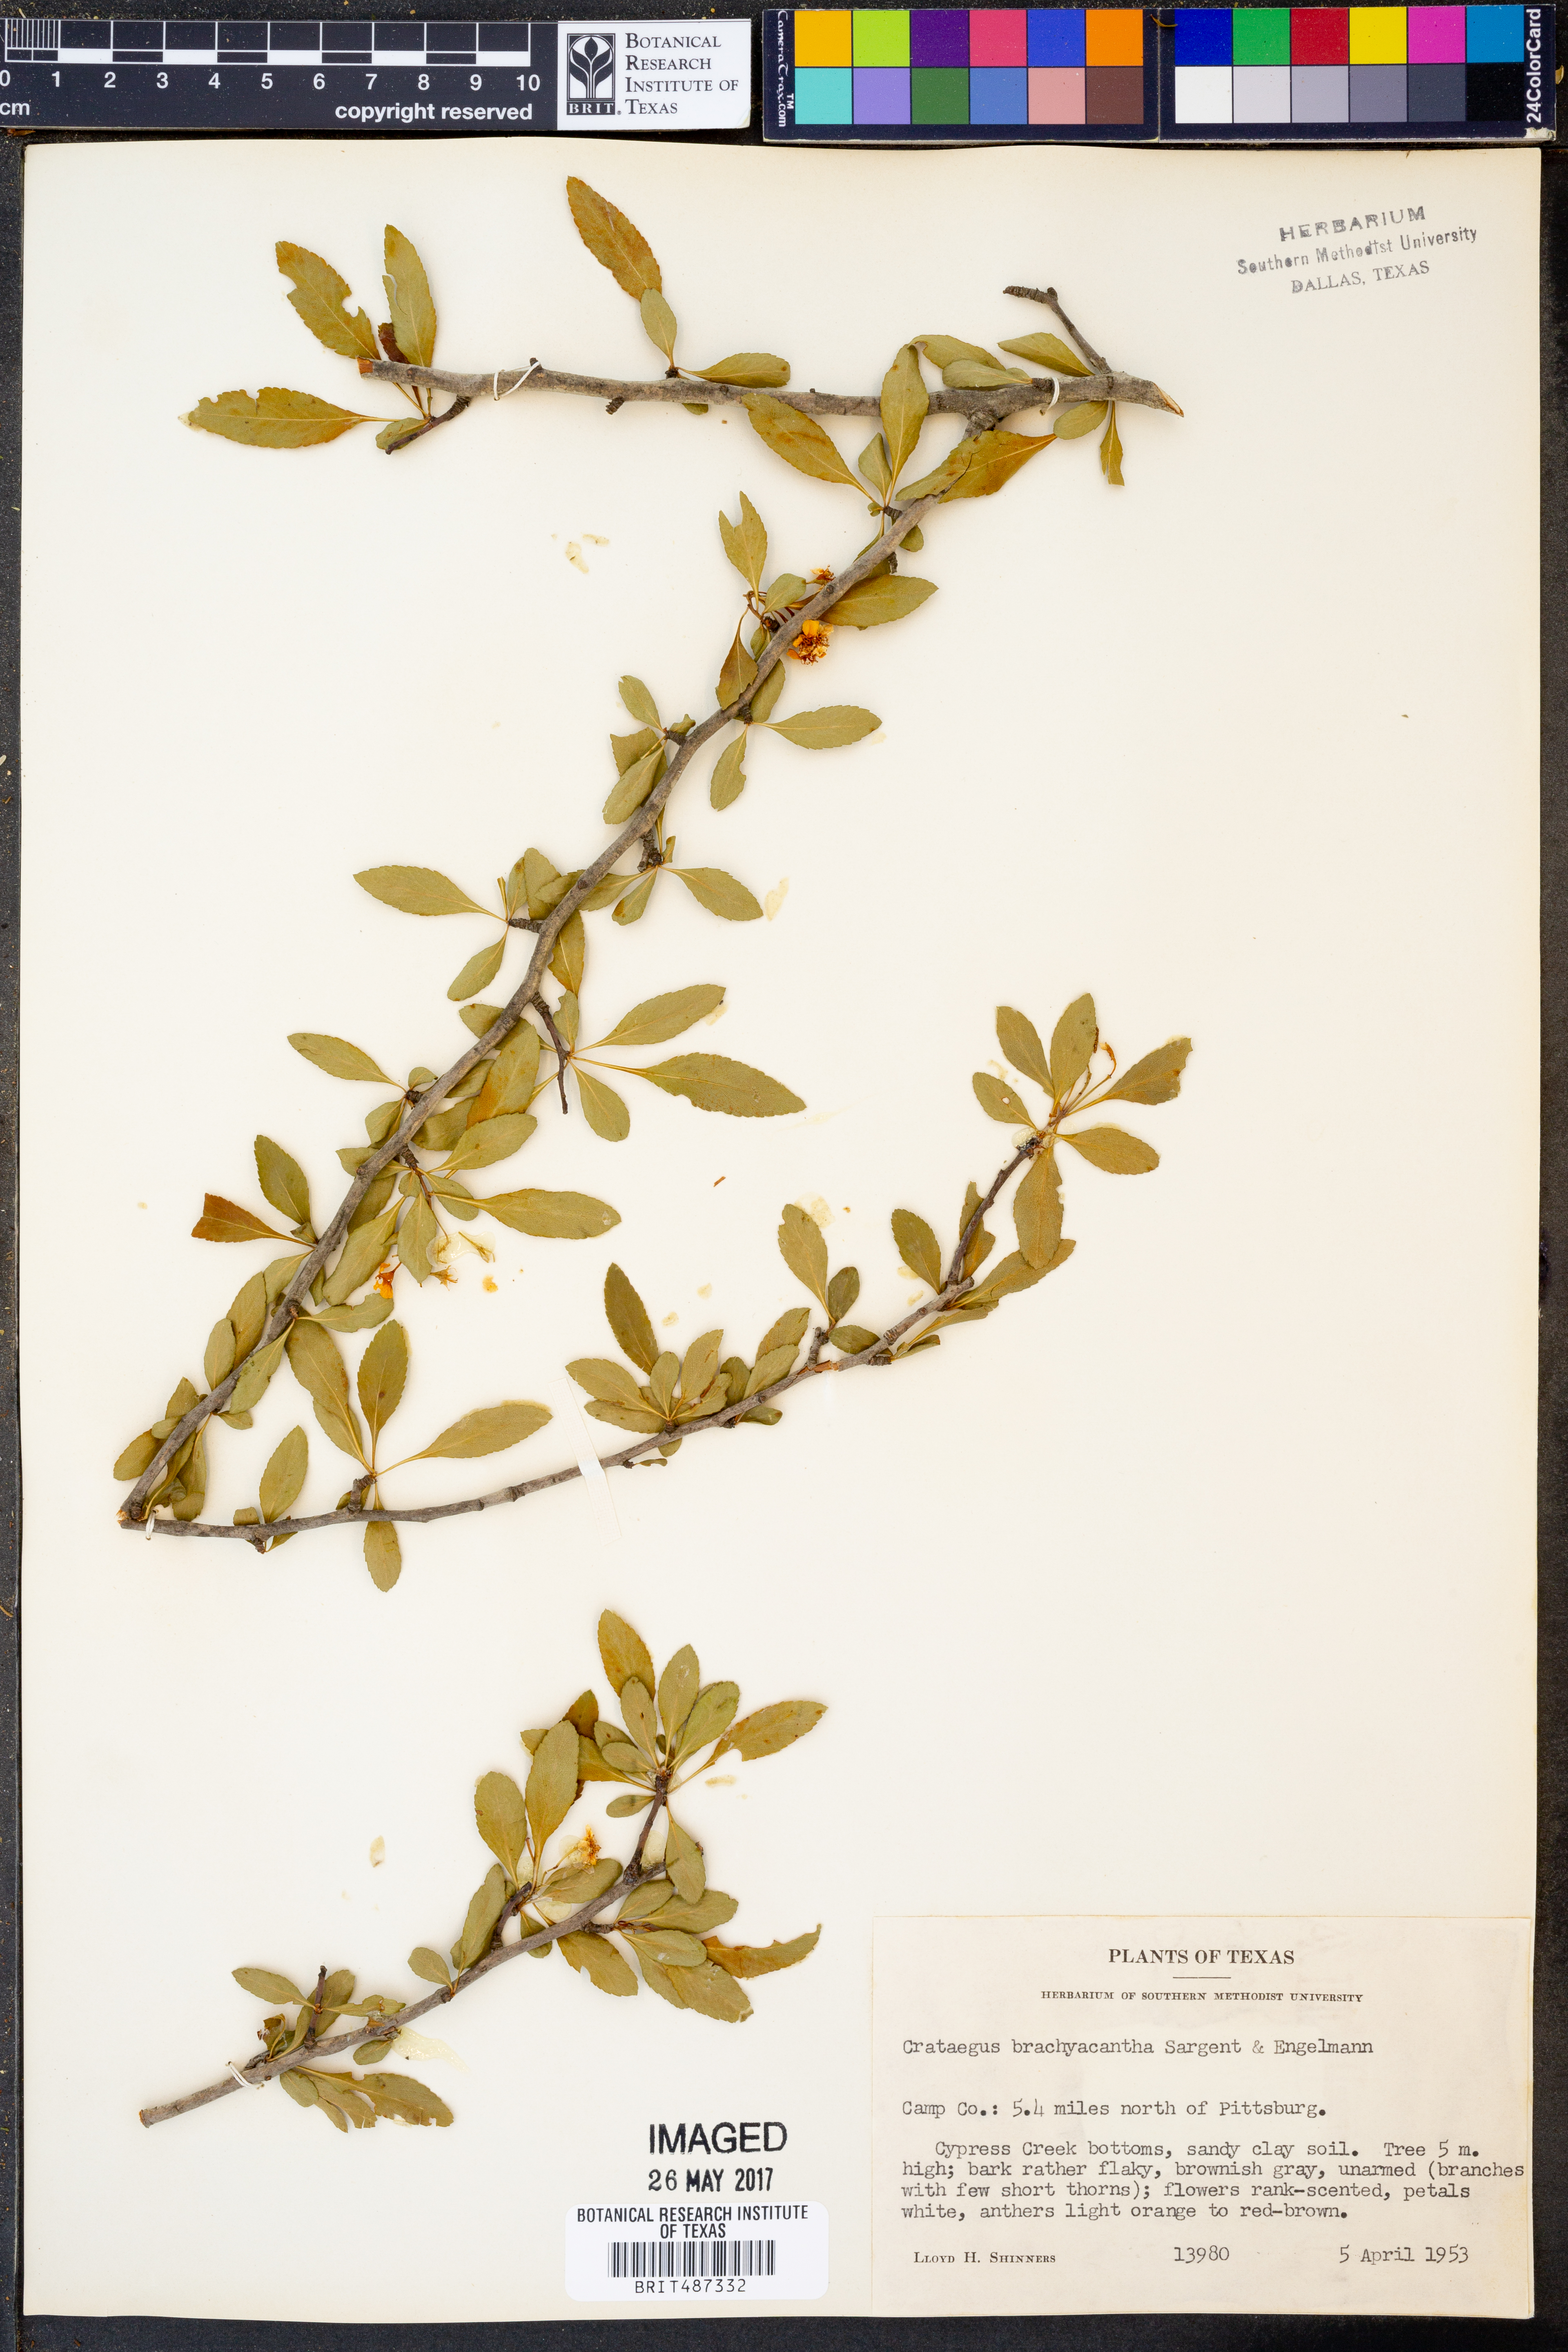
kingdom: Plantae
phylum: Tracheophyta
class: Magnoliopsida
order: Rosales
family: Rosaceae
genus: Crataegus
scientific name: Crataegus brachyacantha
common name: Blueberry-hawthorn
